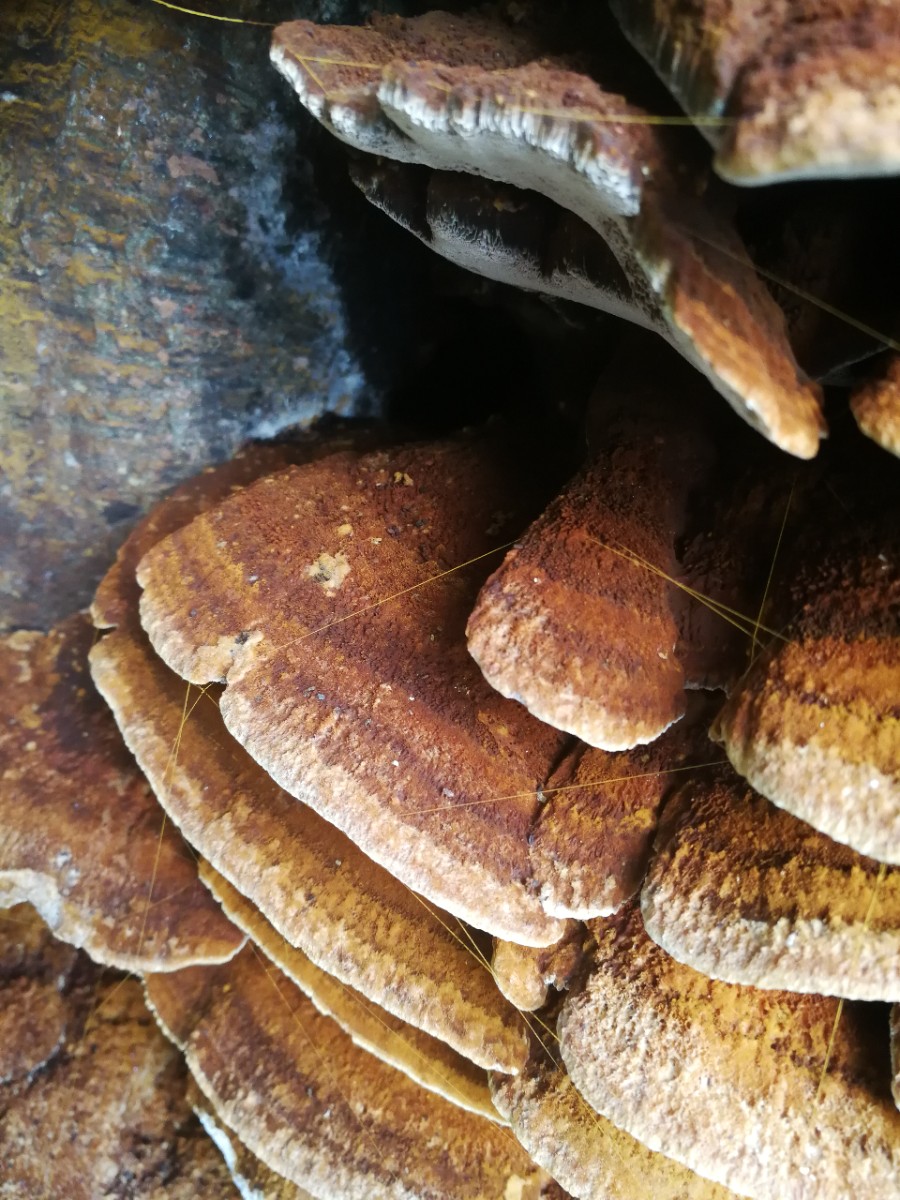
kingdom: Fungi
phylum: Basidiomycota
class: Agaricomycetes
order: Hymenochaetales
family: Hymenochaetaceae
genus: Inonotus
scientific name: Inonotus cuticularis
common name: kroghåret spejlporesvamp
